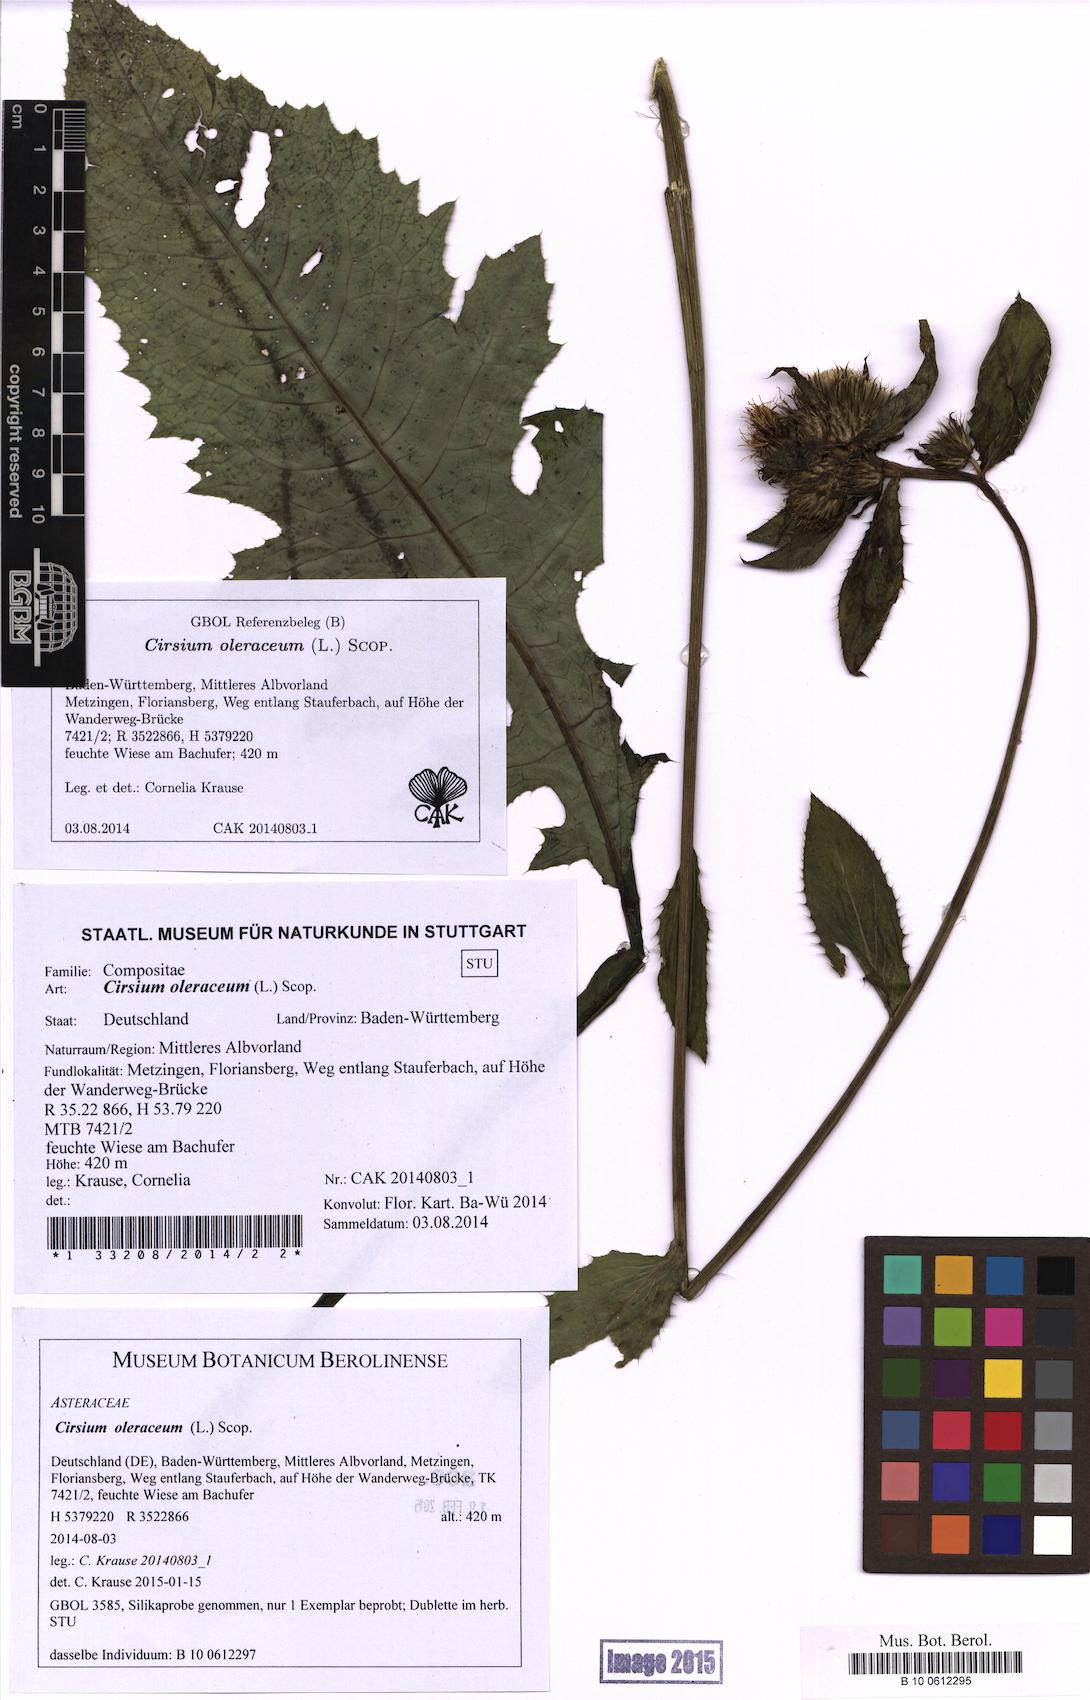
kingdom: Plantae
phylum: Tracheophyta
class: Magnoliopsida
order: Asterales
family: Asteraceae
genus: Cirsium
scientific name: Cirsium oleraceum
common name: Cabbage thistle
